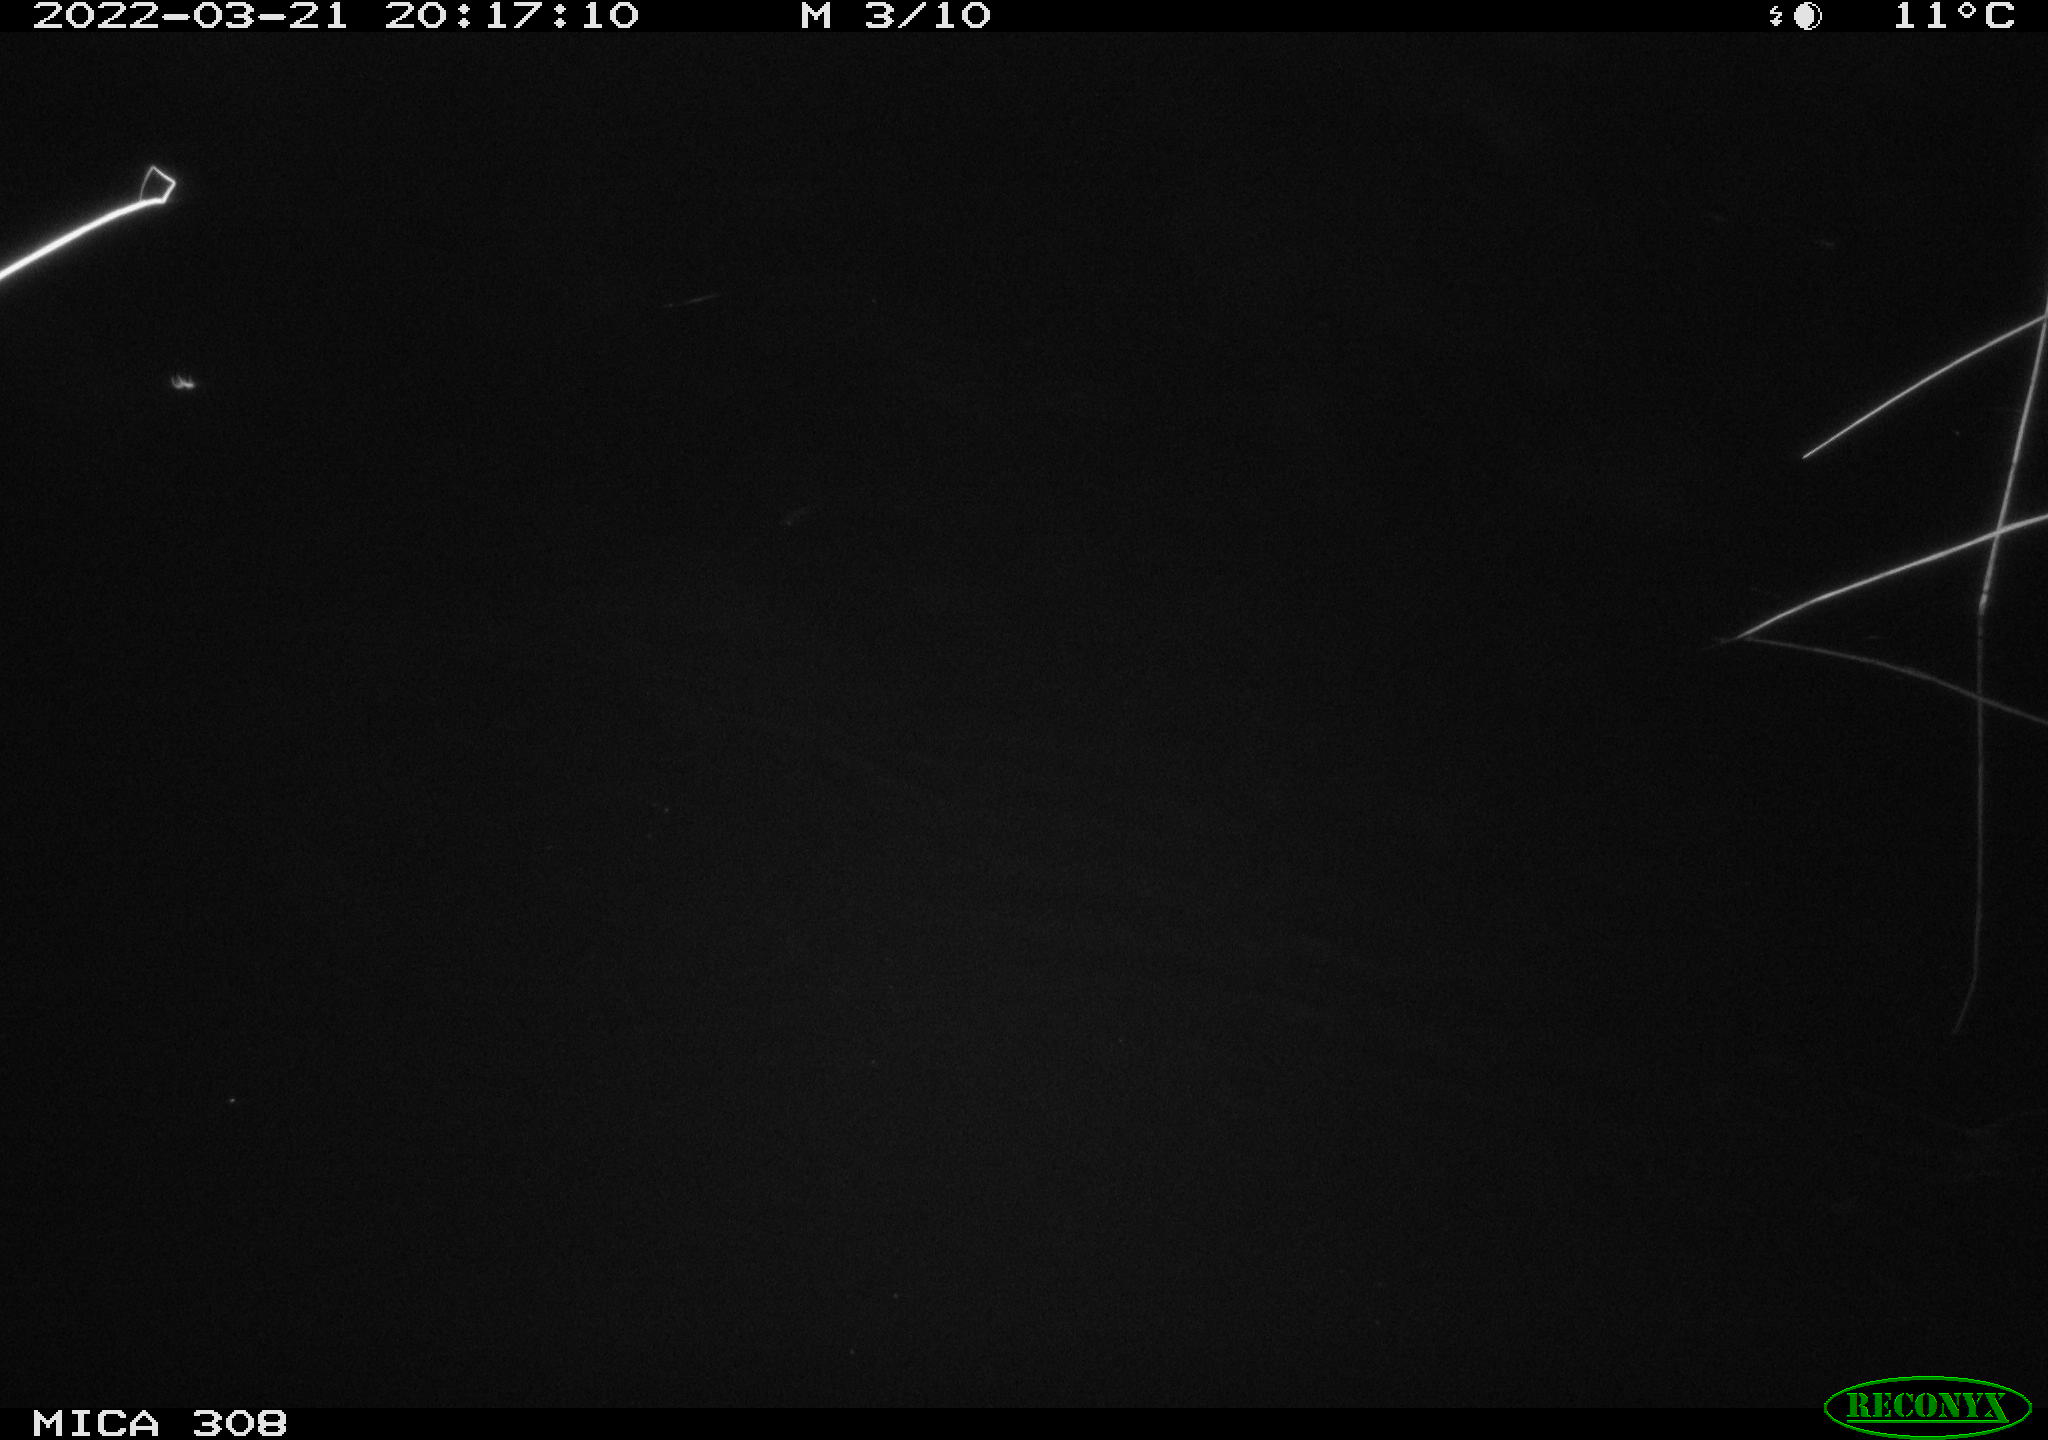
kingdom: Animalia
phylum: Chordata
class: Mammalia
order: Rodentia
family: Cricetidae
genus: Ondatra
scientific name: Ondatra zibethicus
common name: Muskrat
